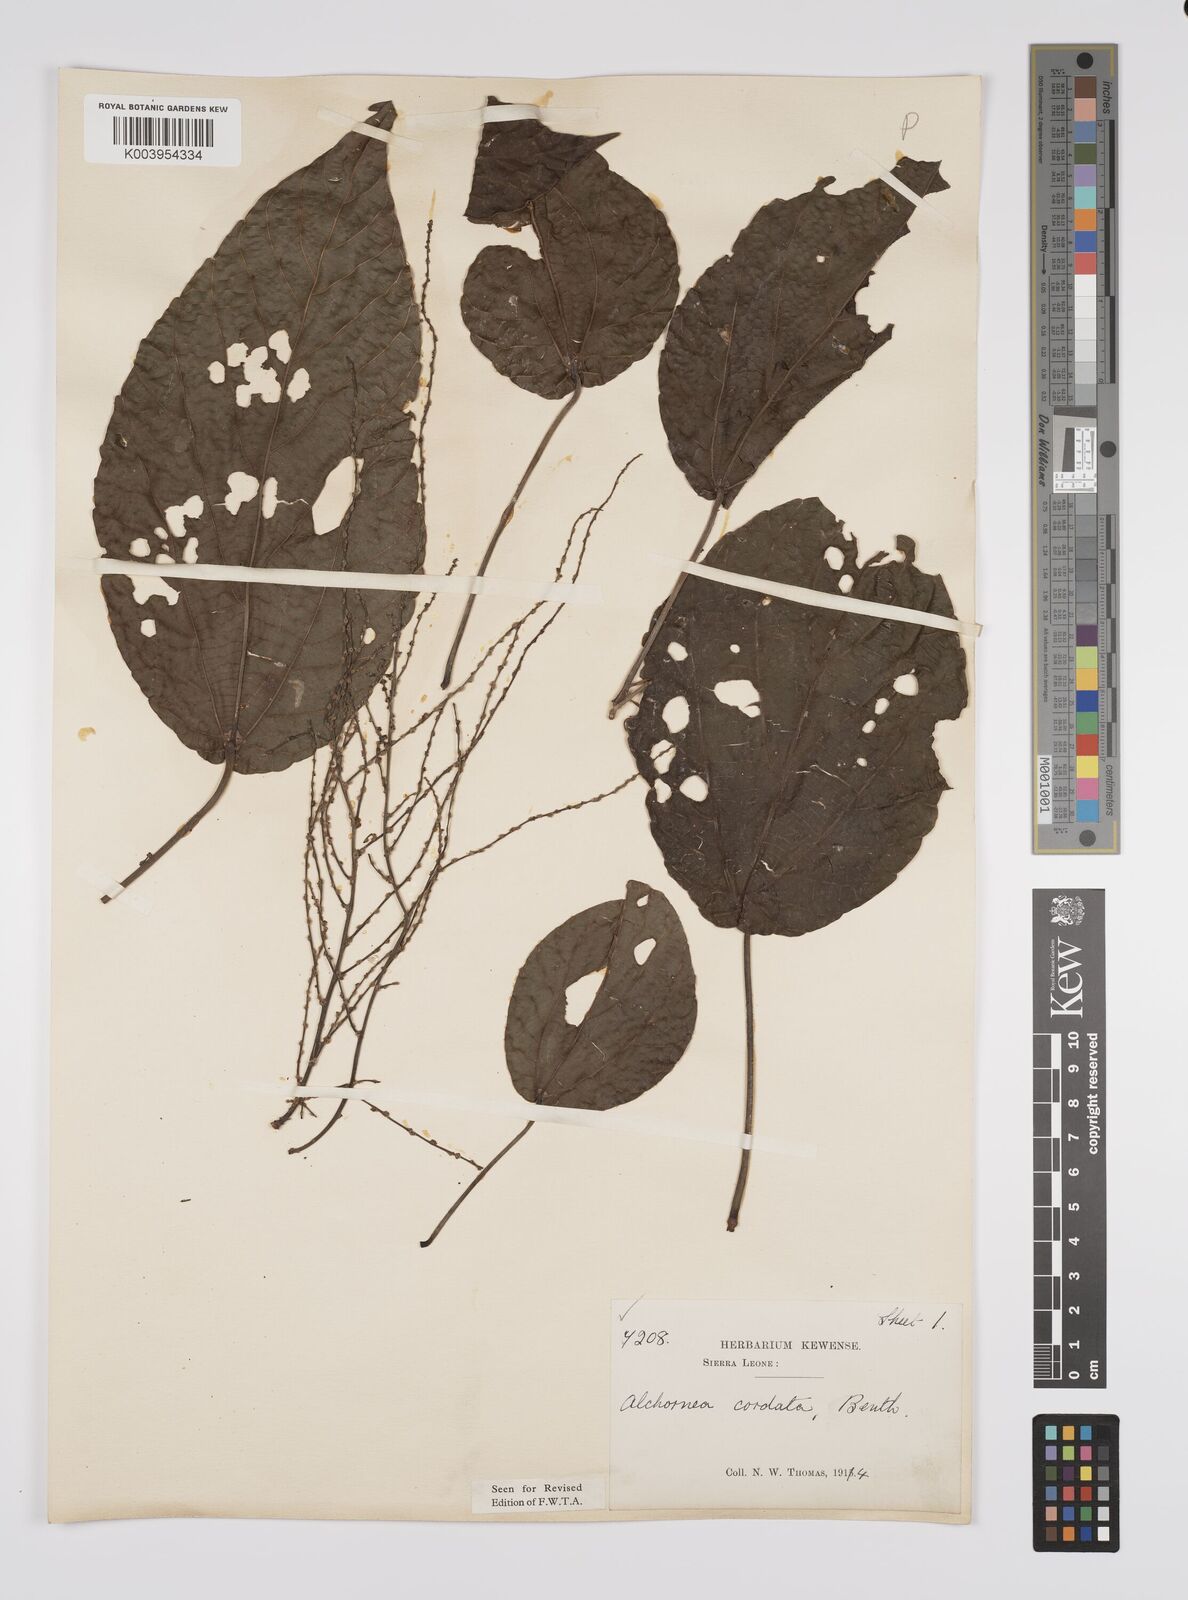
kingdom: Plantae
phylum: Tracheophyta
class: Magnoliopsida
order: Malpighiales
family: Euphorbiaceae
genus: Alchornea
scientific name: Alchornea cordifolia
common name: Christmasbush
